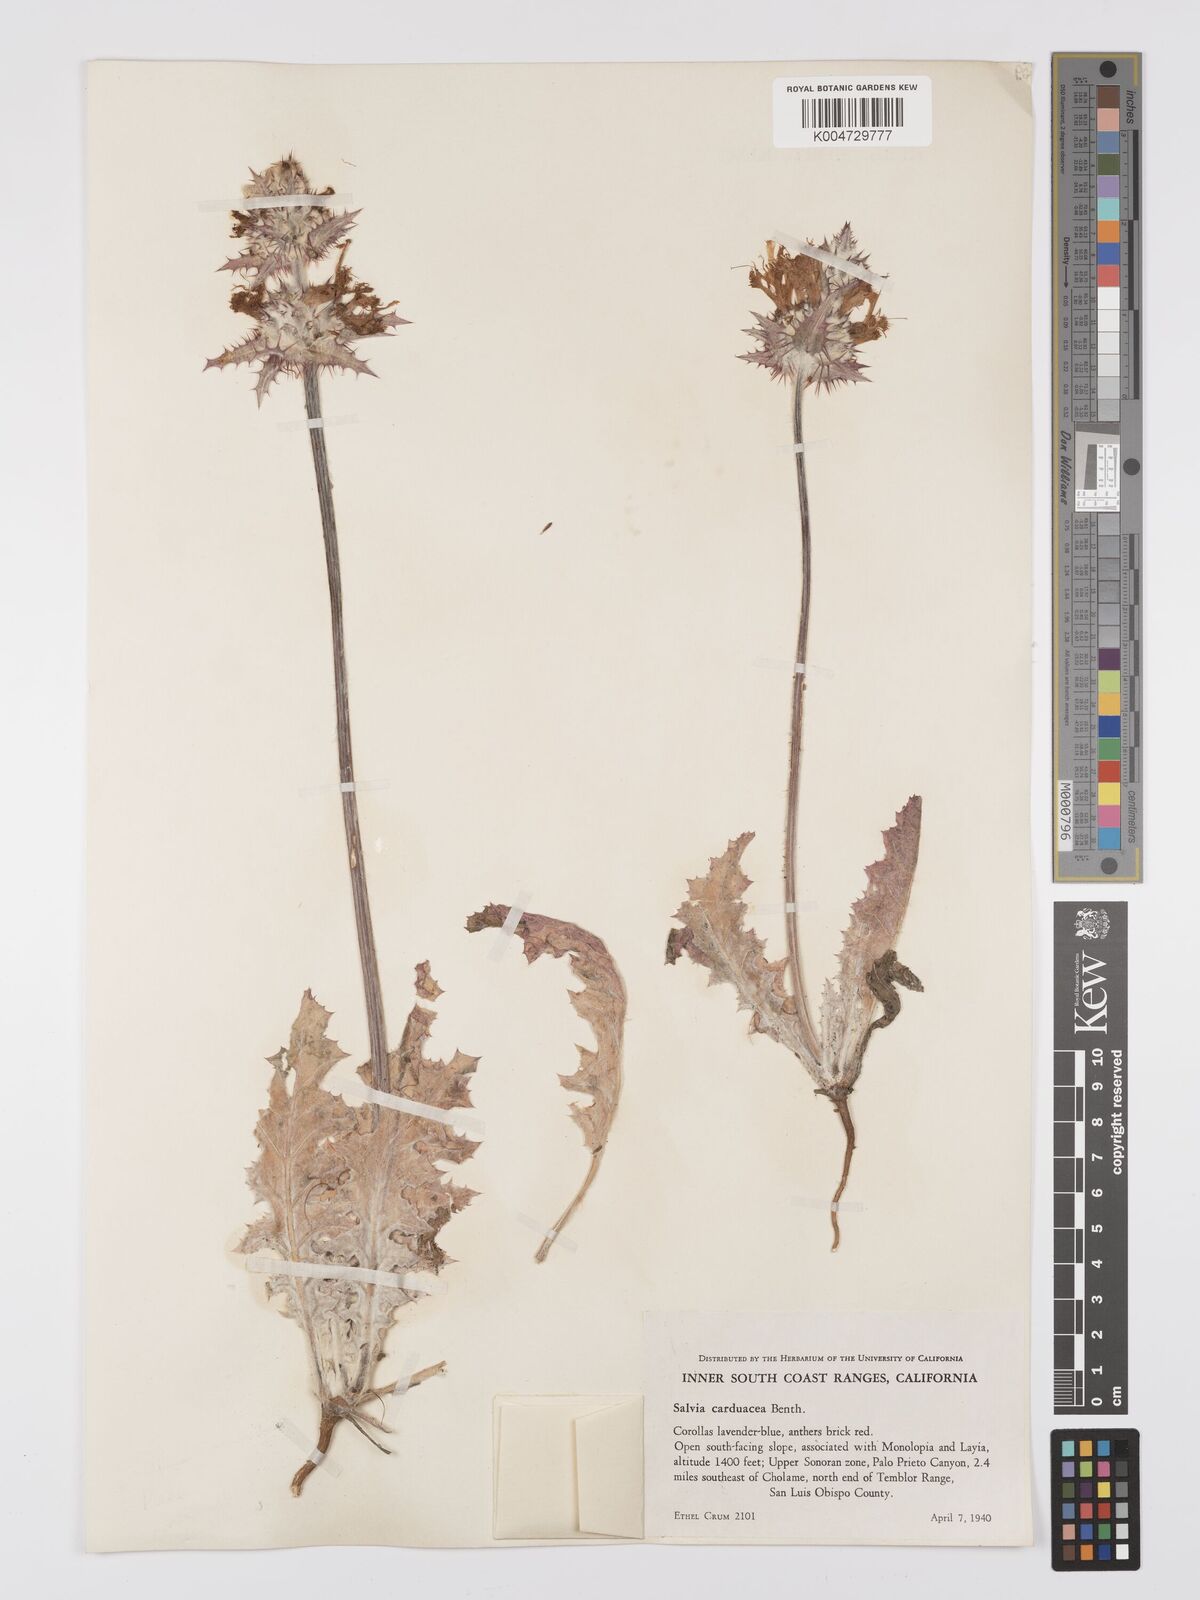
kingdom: Plantae
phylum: Tracheophyta
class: Magnoliopsida
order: Lamiales
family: Lamiaceae
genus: Salvia
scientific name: Salvia carduacea
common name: Thistle sage
